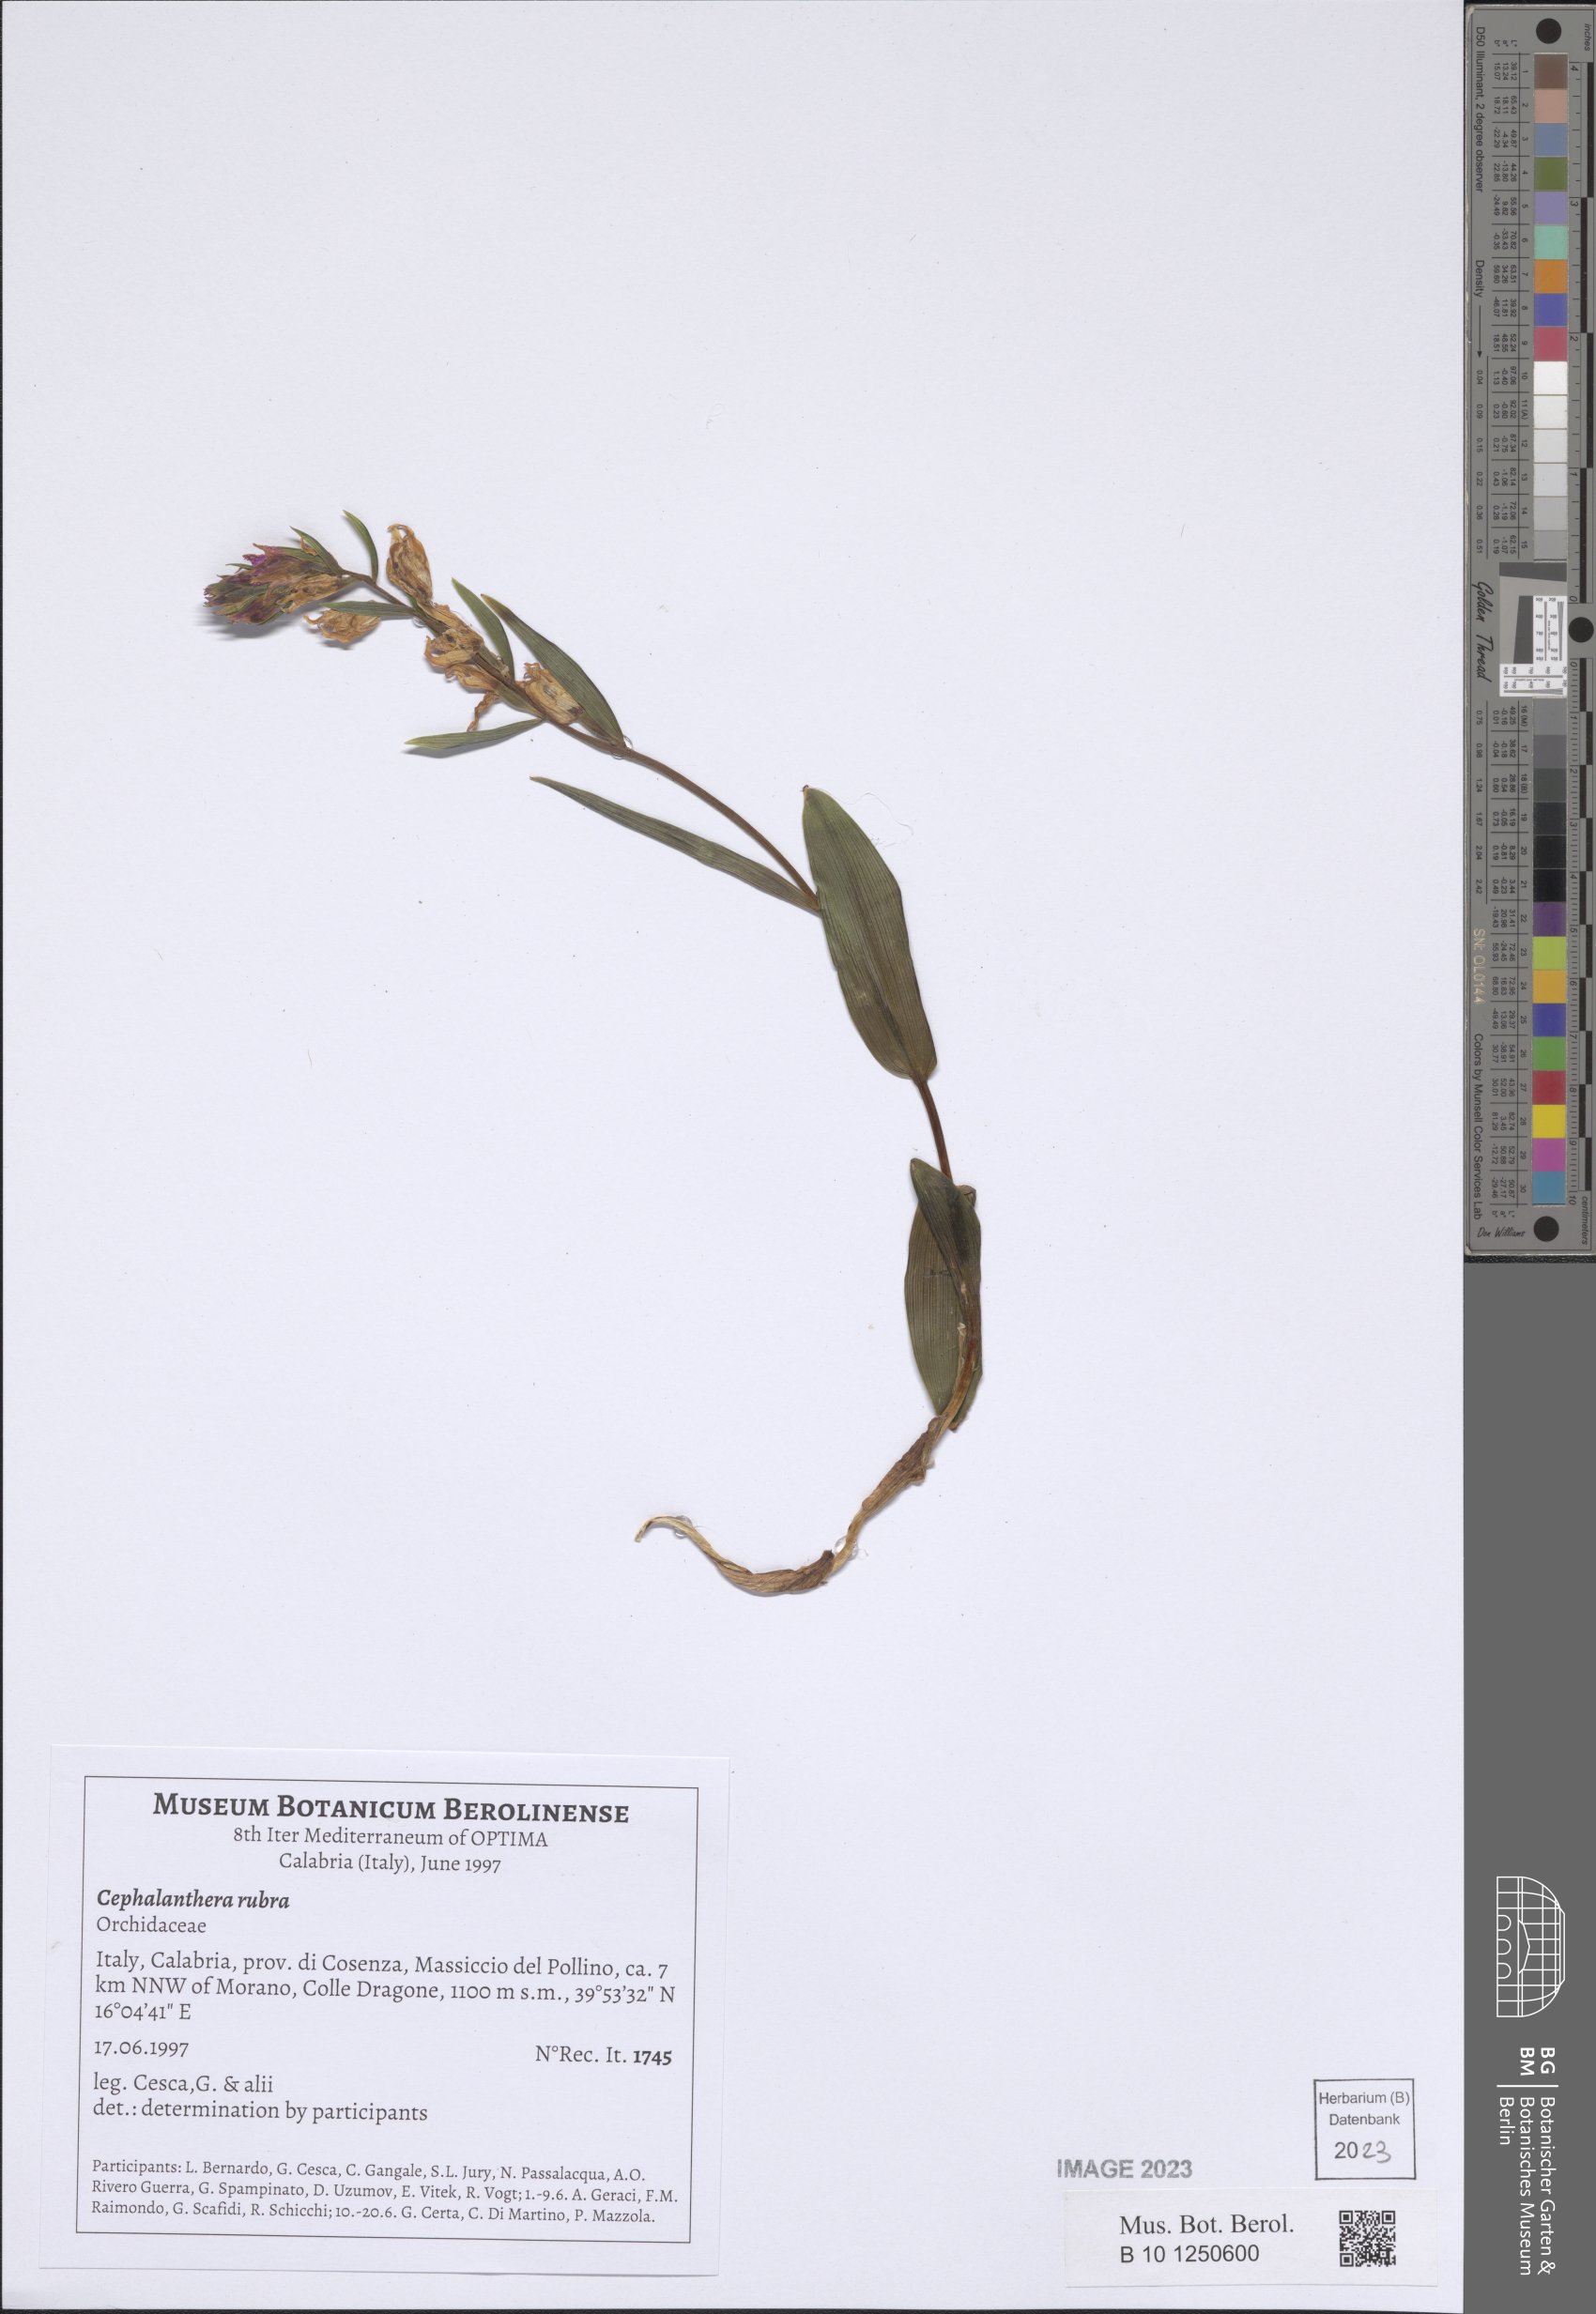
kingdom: Plantae
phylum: Tracheophyta
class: Liliopsida
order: Asparagales
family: Orchidaceae
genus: Cephalanthera
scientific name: Cephalanthera rubra
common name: Red helleborine
